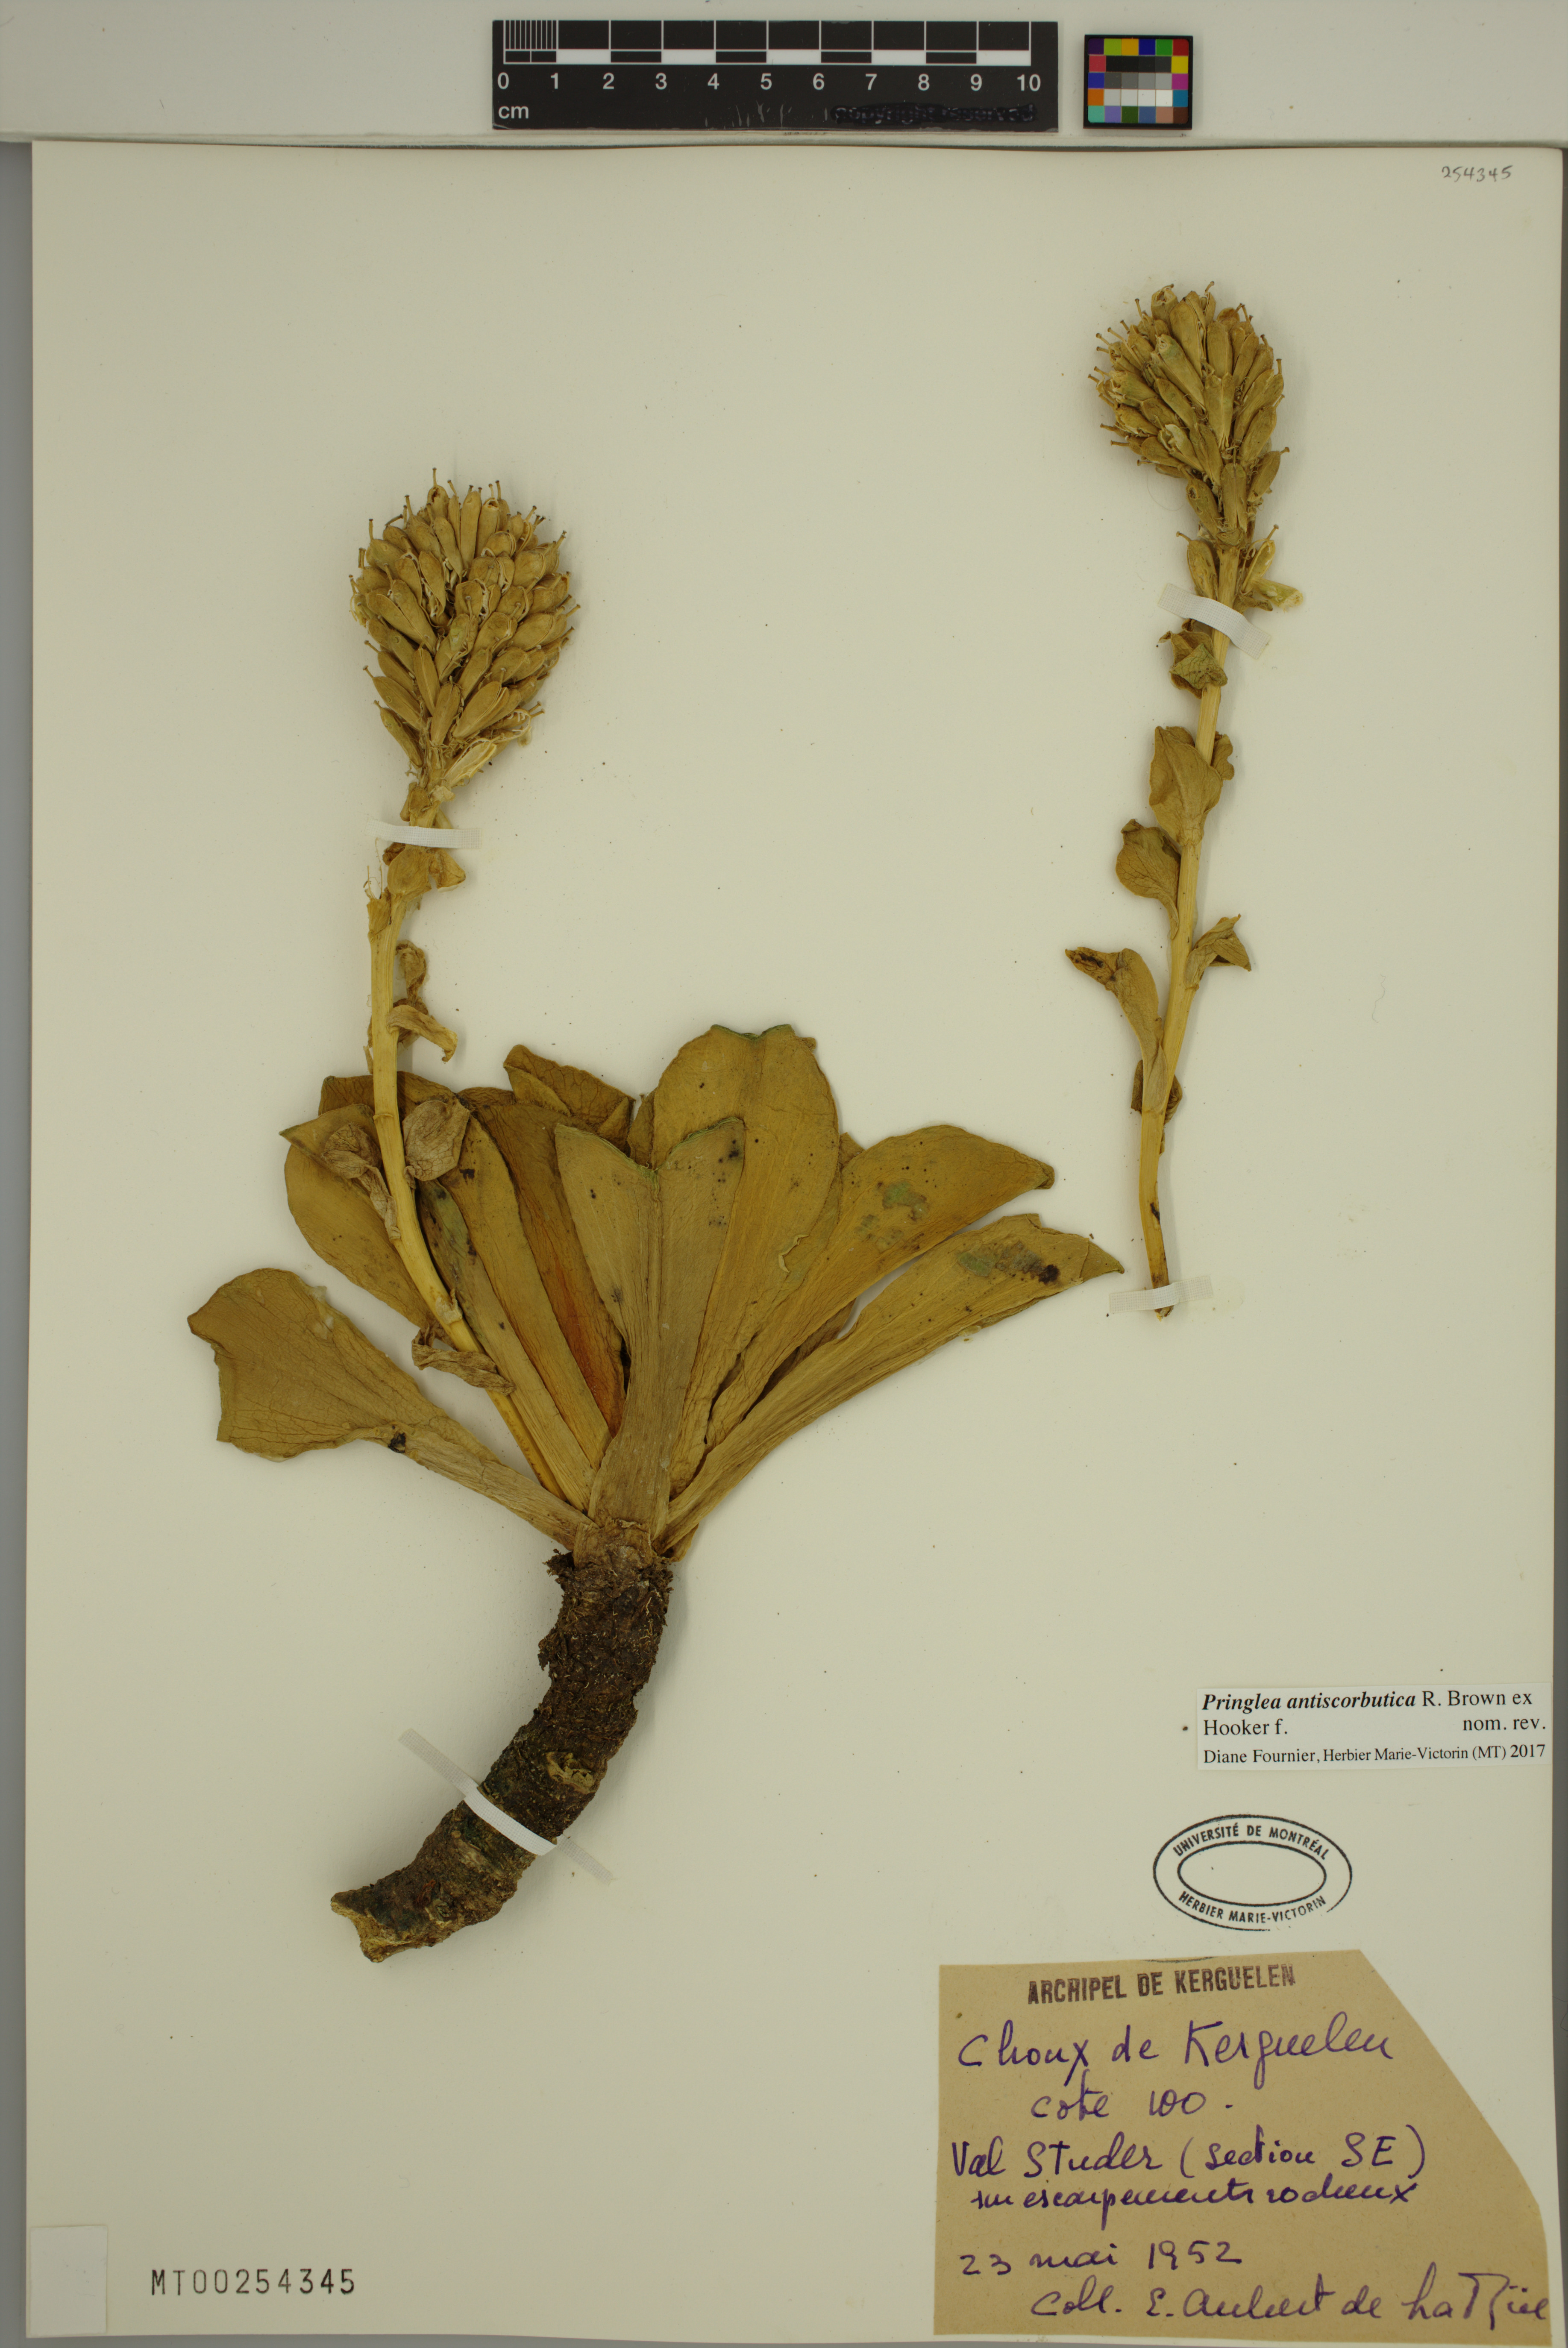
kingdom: Plantae
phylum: Tracheophyta
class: Magnoliopsida
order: Brassicales
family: Brassicaceae
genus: Pringlea
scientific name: Pringlea antiscorbutica
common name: Kerguelen-cabbage
